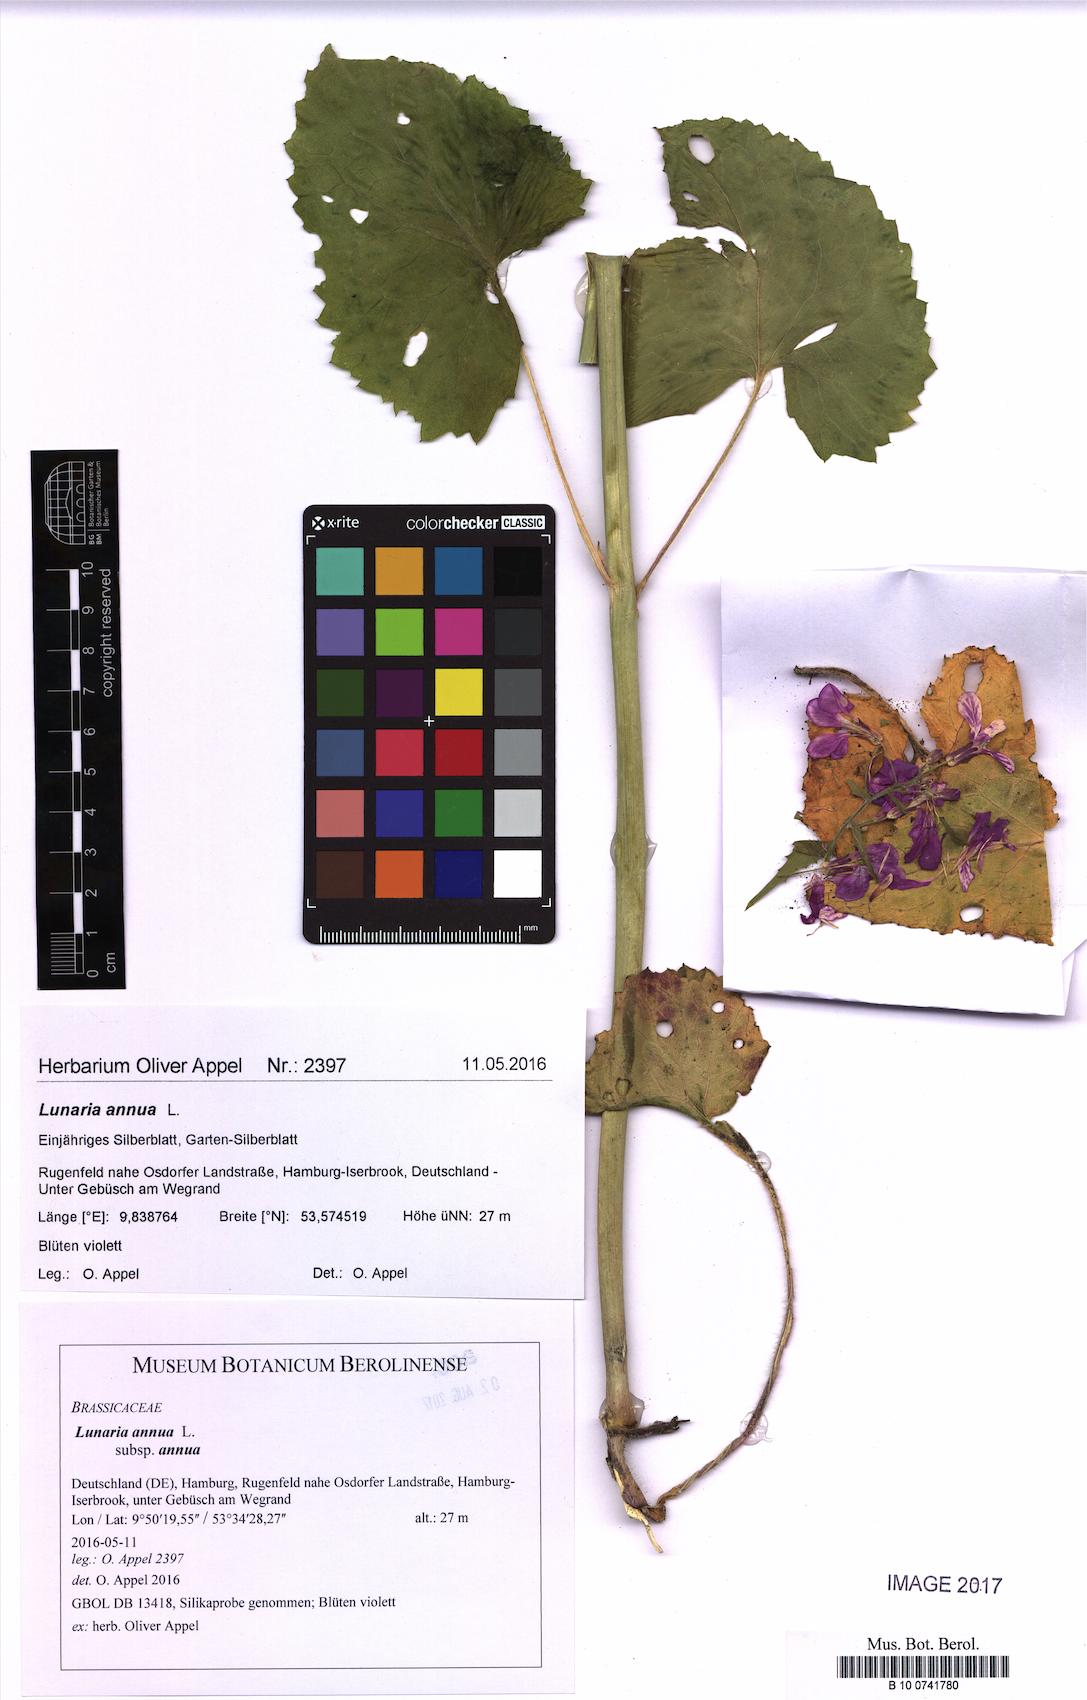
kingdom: Plantae
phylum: Tracheophyta
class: Magnoliopsida
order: Brassicales
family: Brassicaceae
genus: Lunaria
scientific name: Lunaria annua
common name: Honesty
